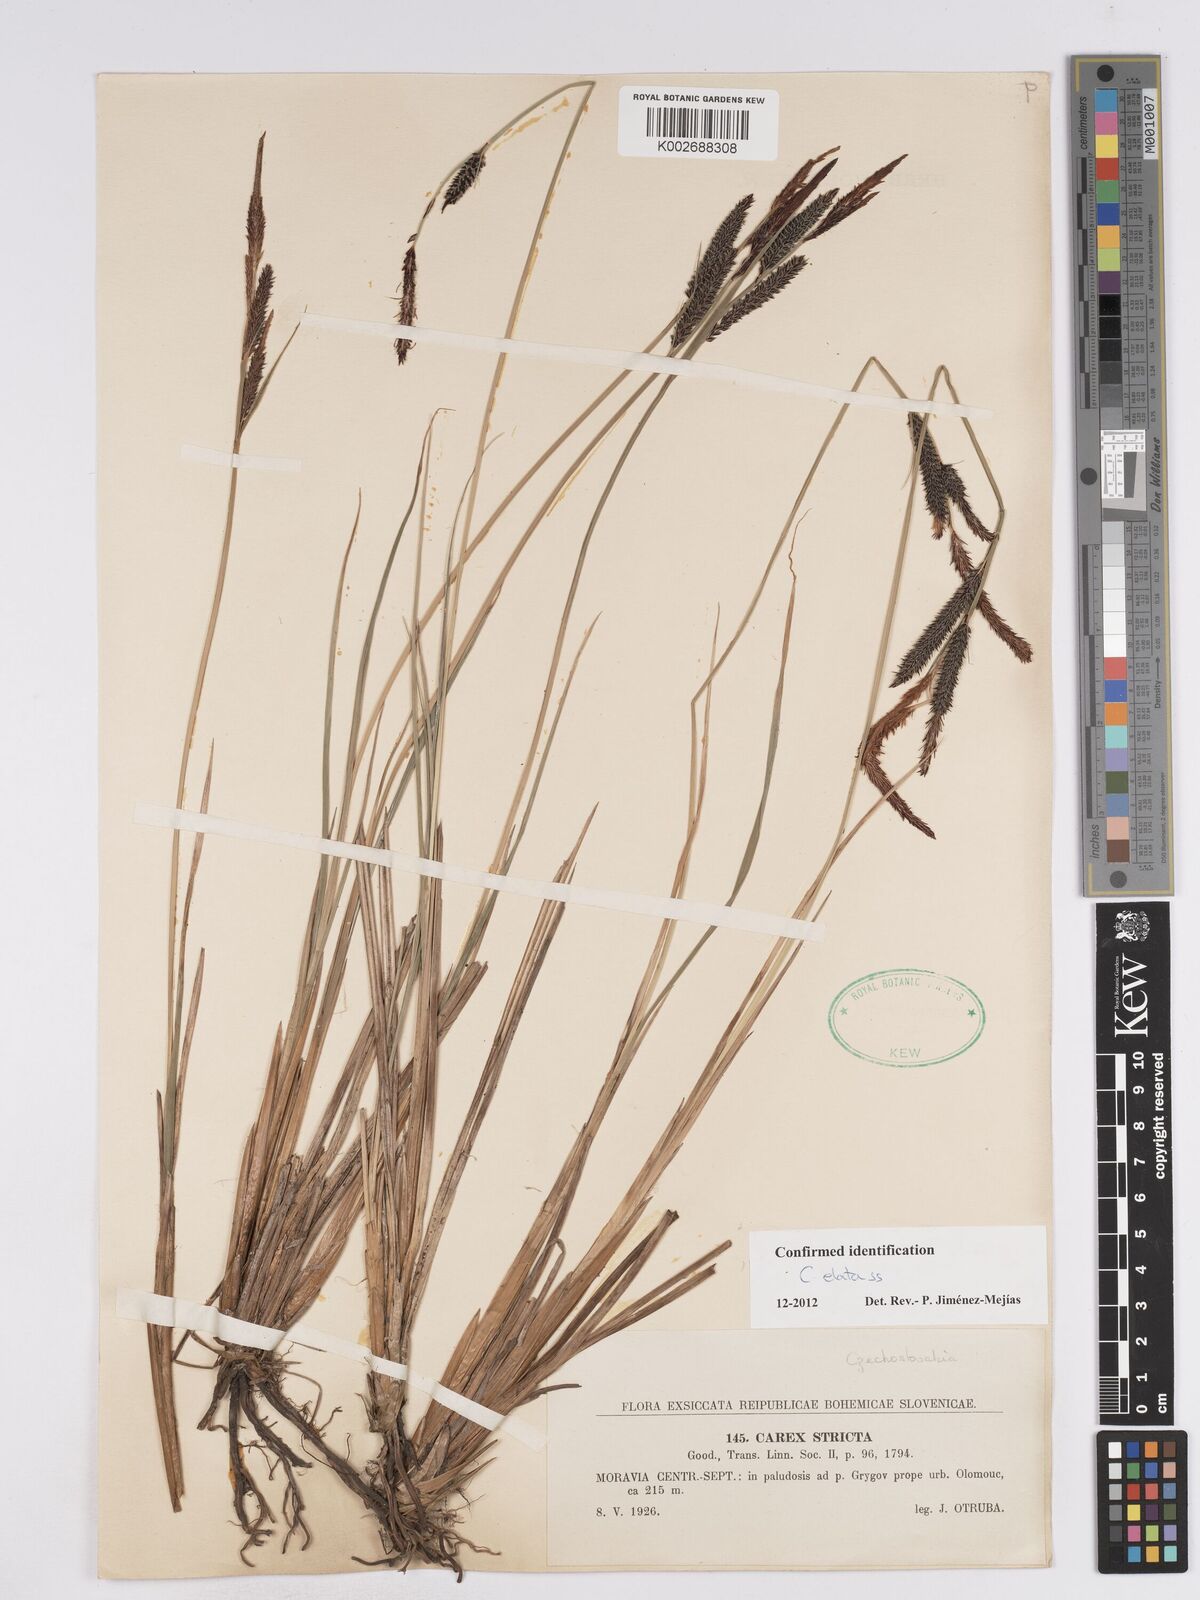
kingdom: Plantae
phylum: Tracheophyta
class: Liliopsida
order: Poales
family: Cyperaceae
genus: Carex
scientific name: Carex elata
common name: Tufted sedge
